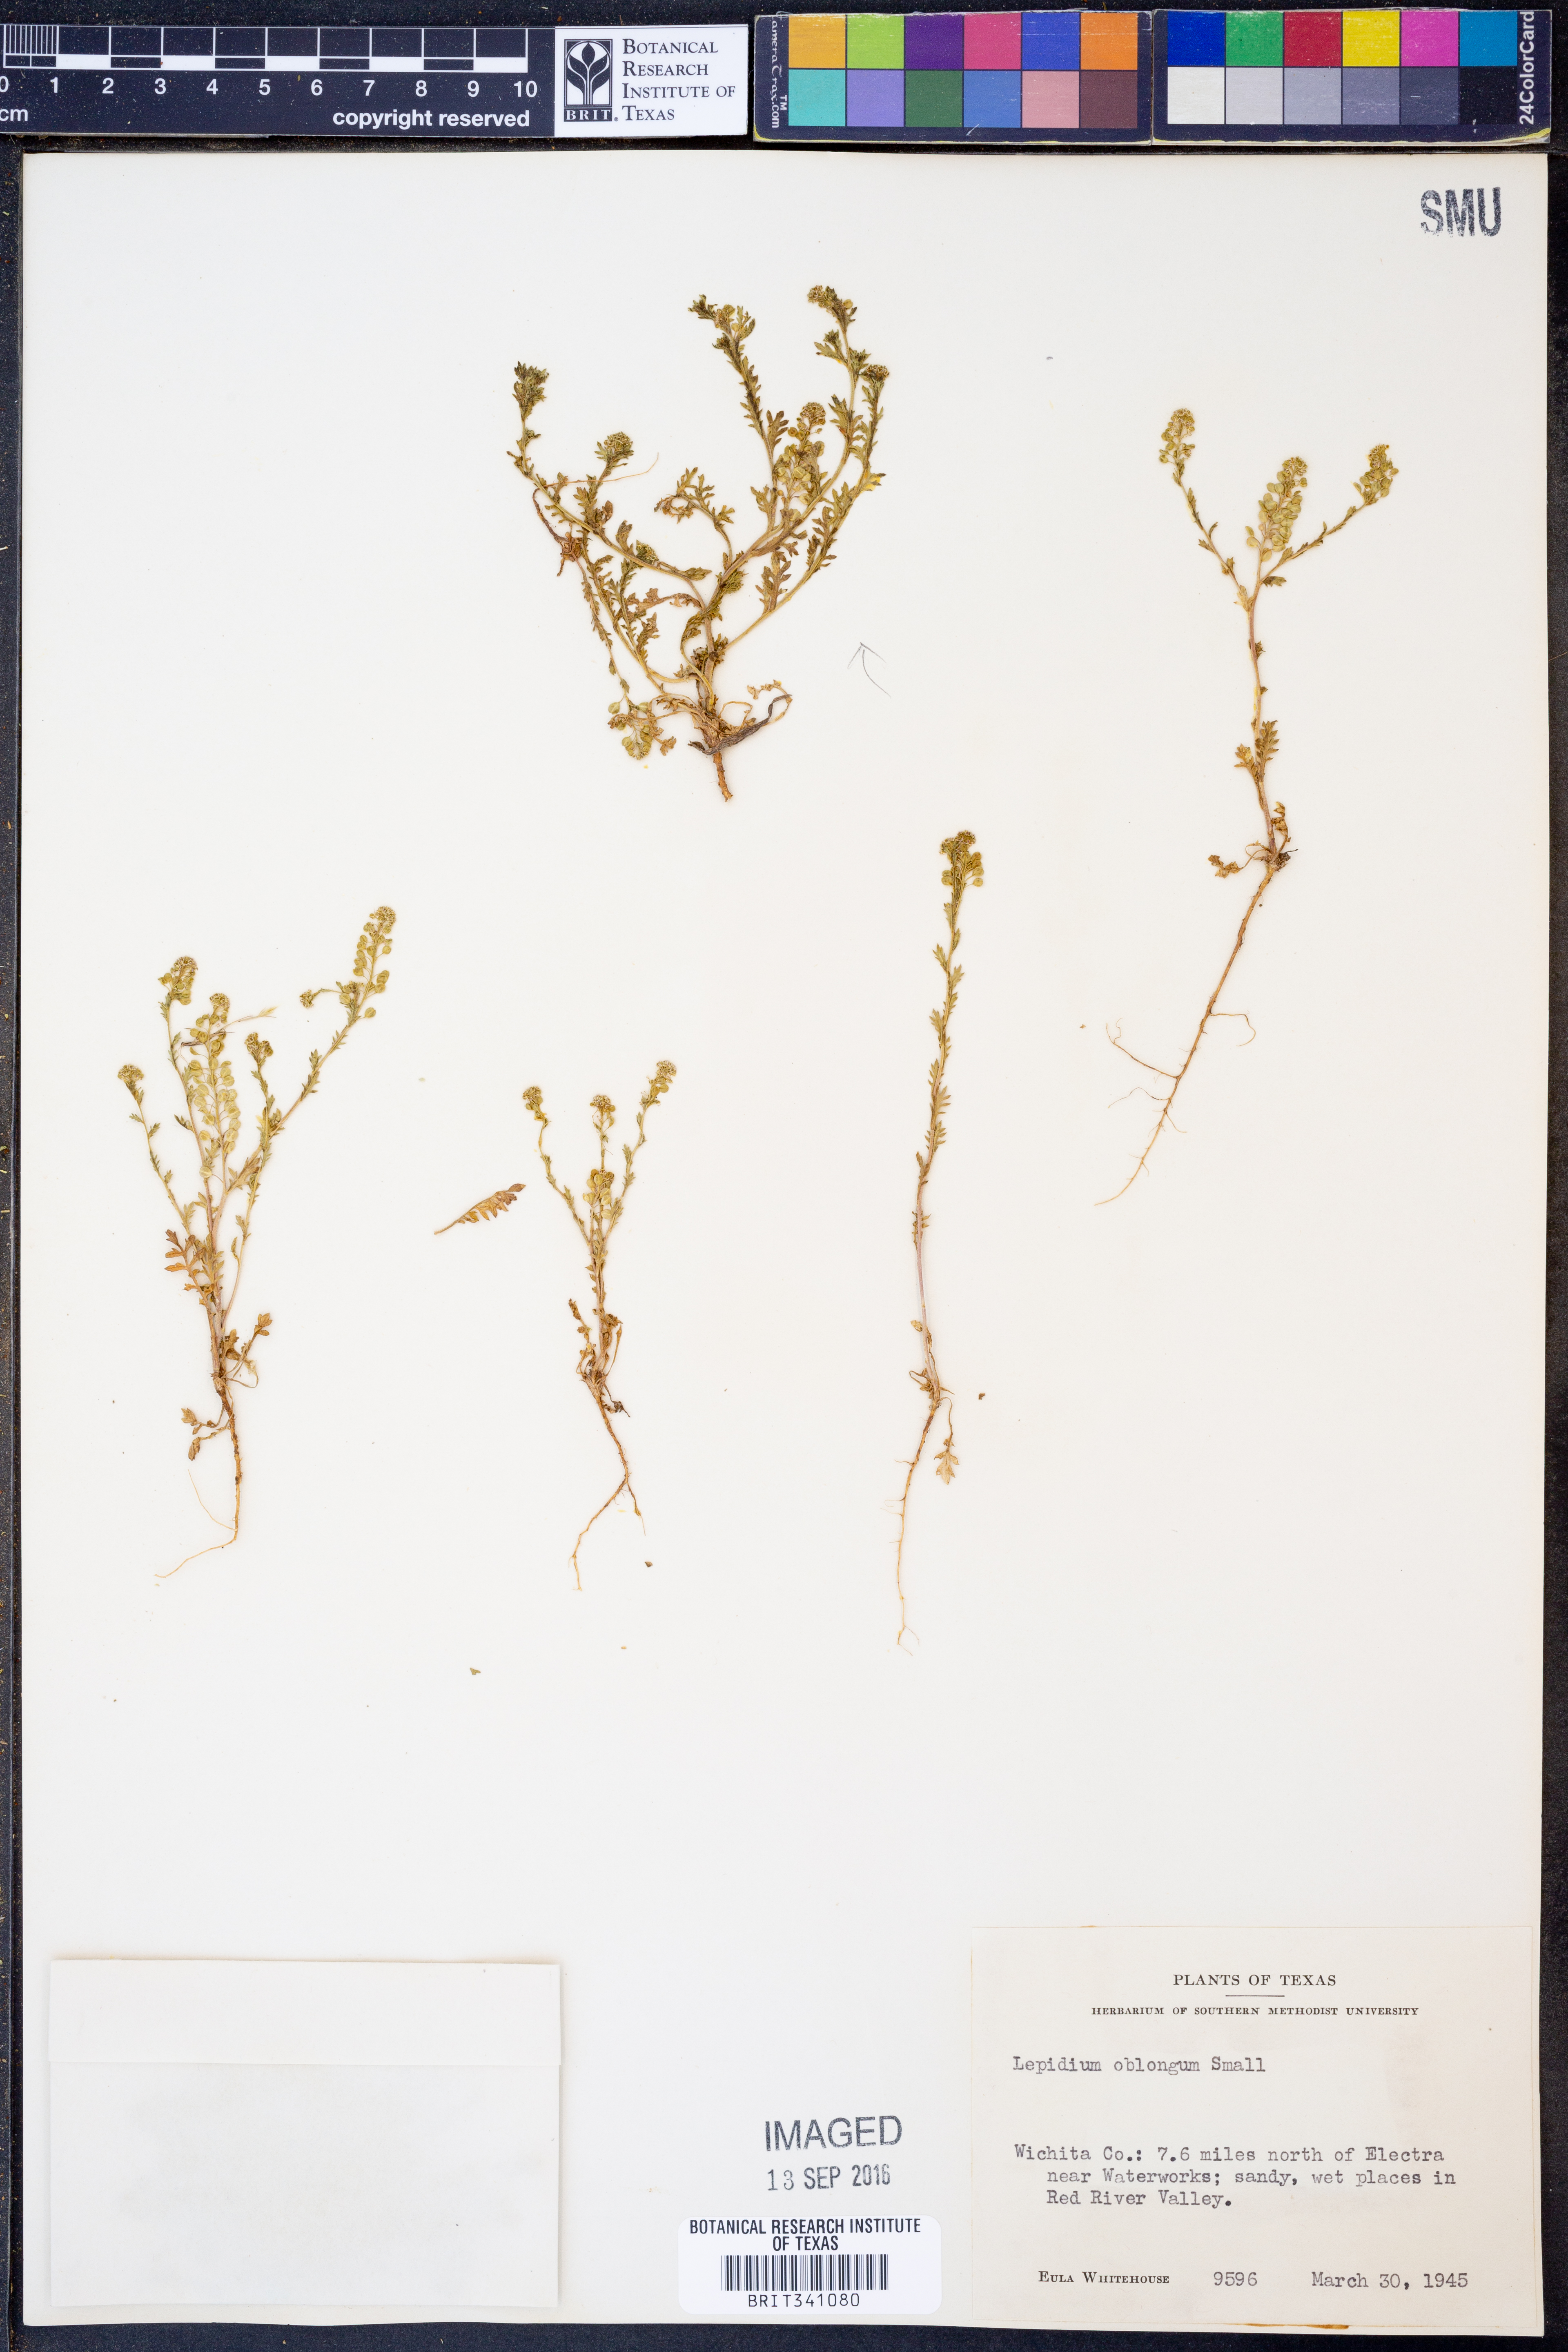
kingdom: Plantae
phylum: Tracheophyta
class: Magnoliopsida
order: Brassicales
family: Brassicaceae
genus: Lepidium
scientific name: Lepidium oblongum
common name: Veiny pepperweed
